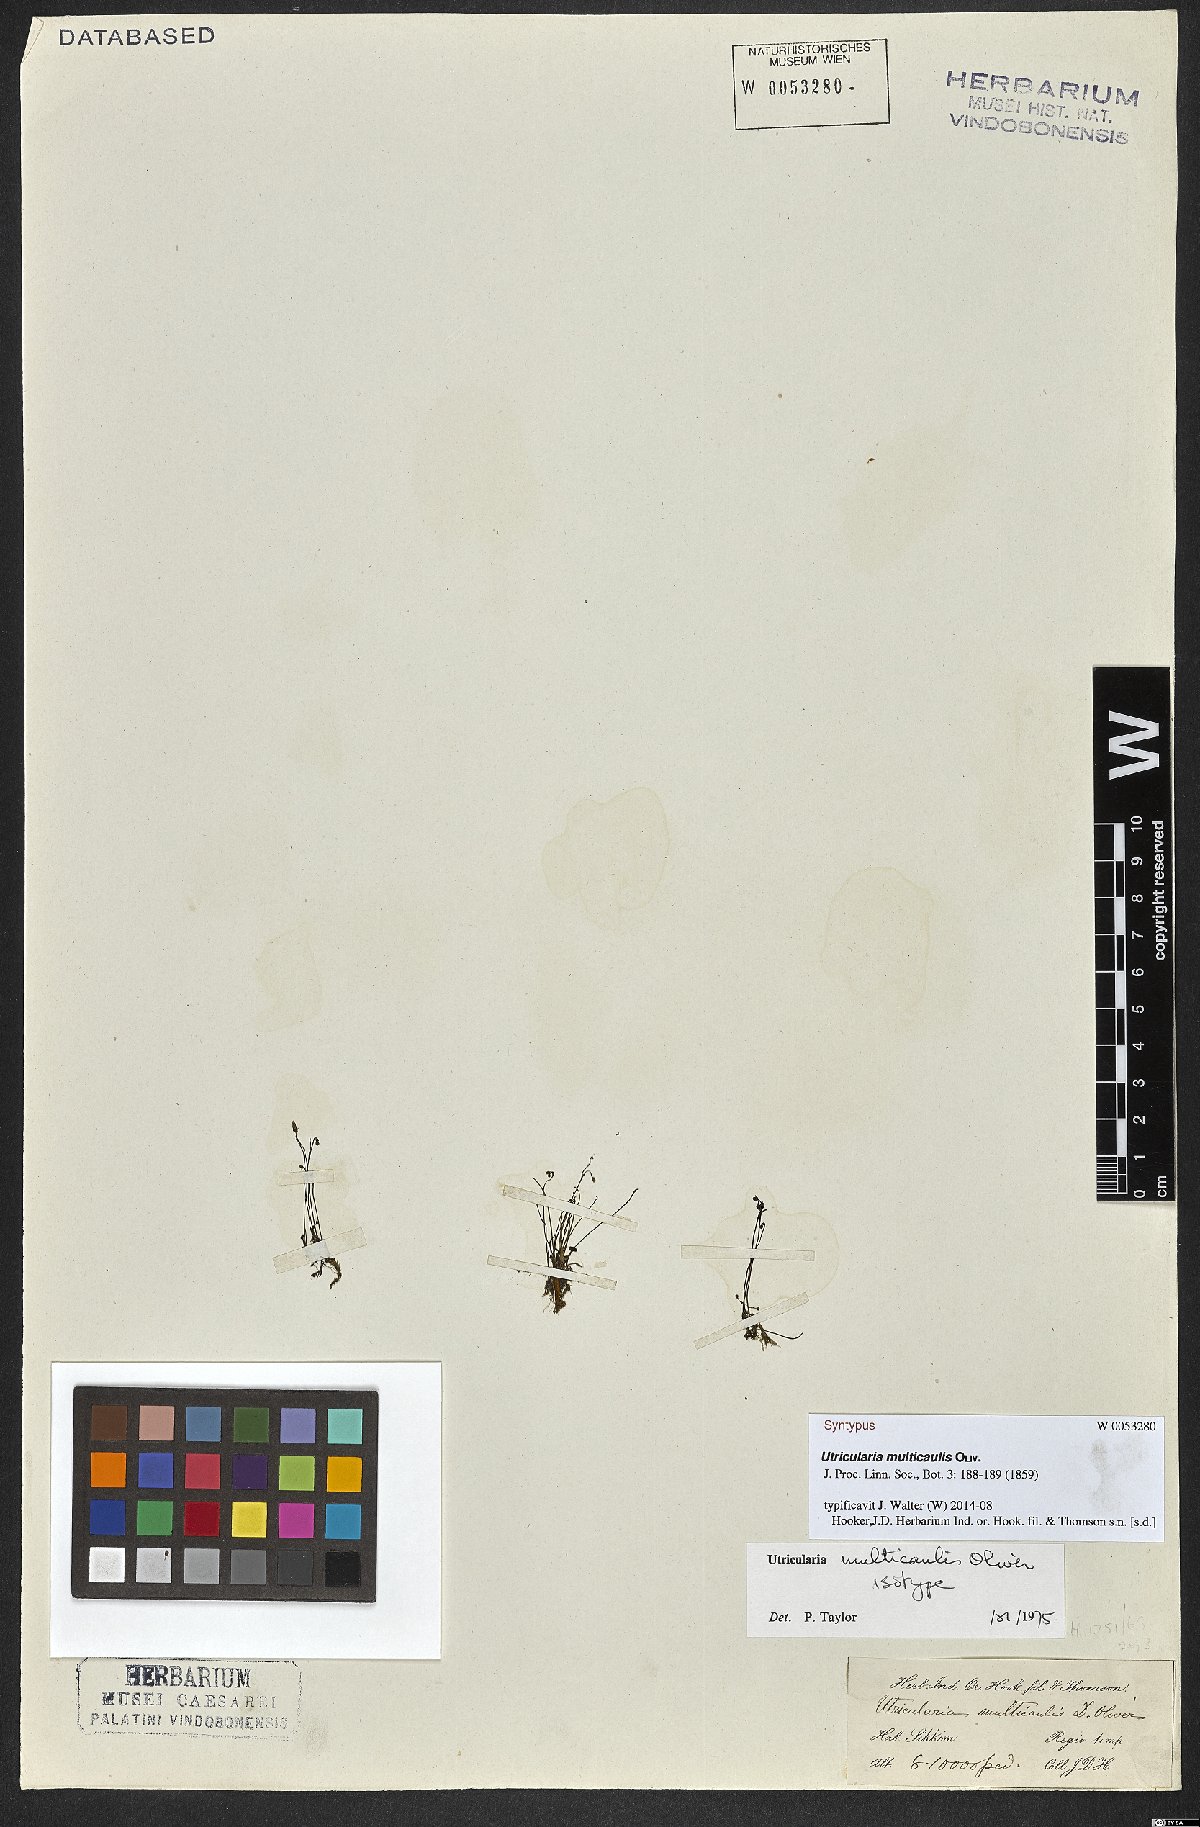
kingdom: Plantae
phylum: Tracheophyta
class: Magnoliopsida
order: Lamiales
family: Lentibulariaceae
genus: Utricularia
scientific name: Utricularia multicaulis
